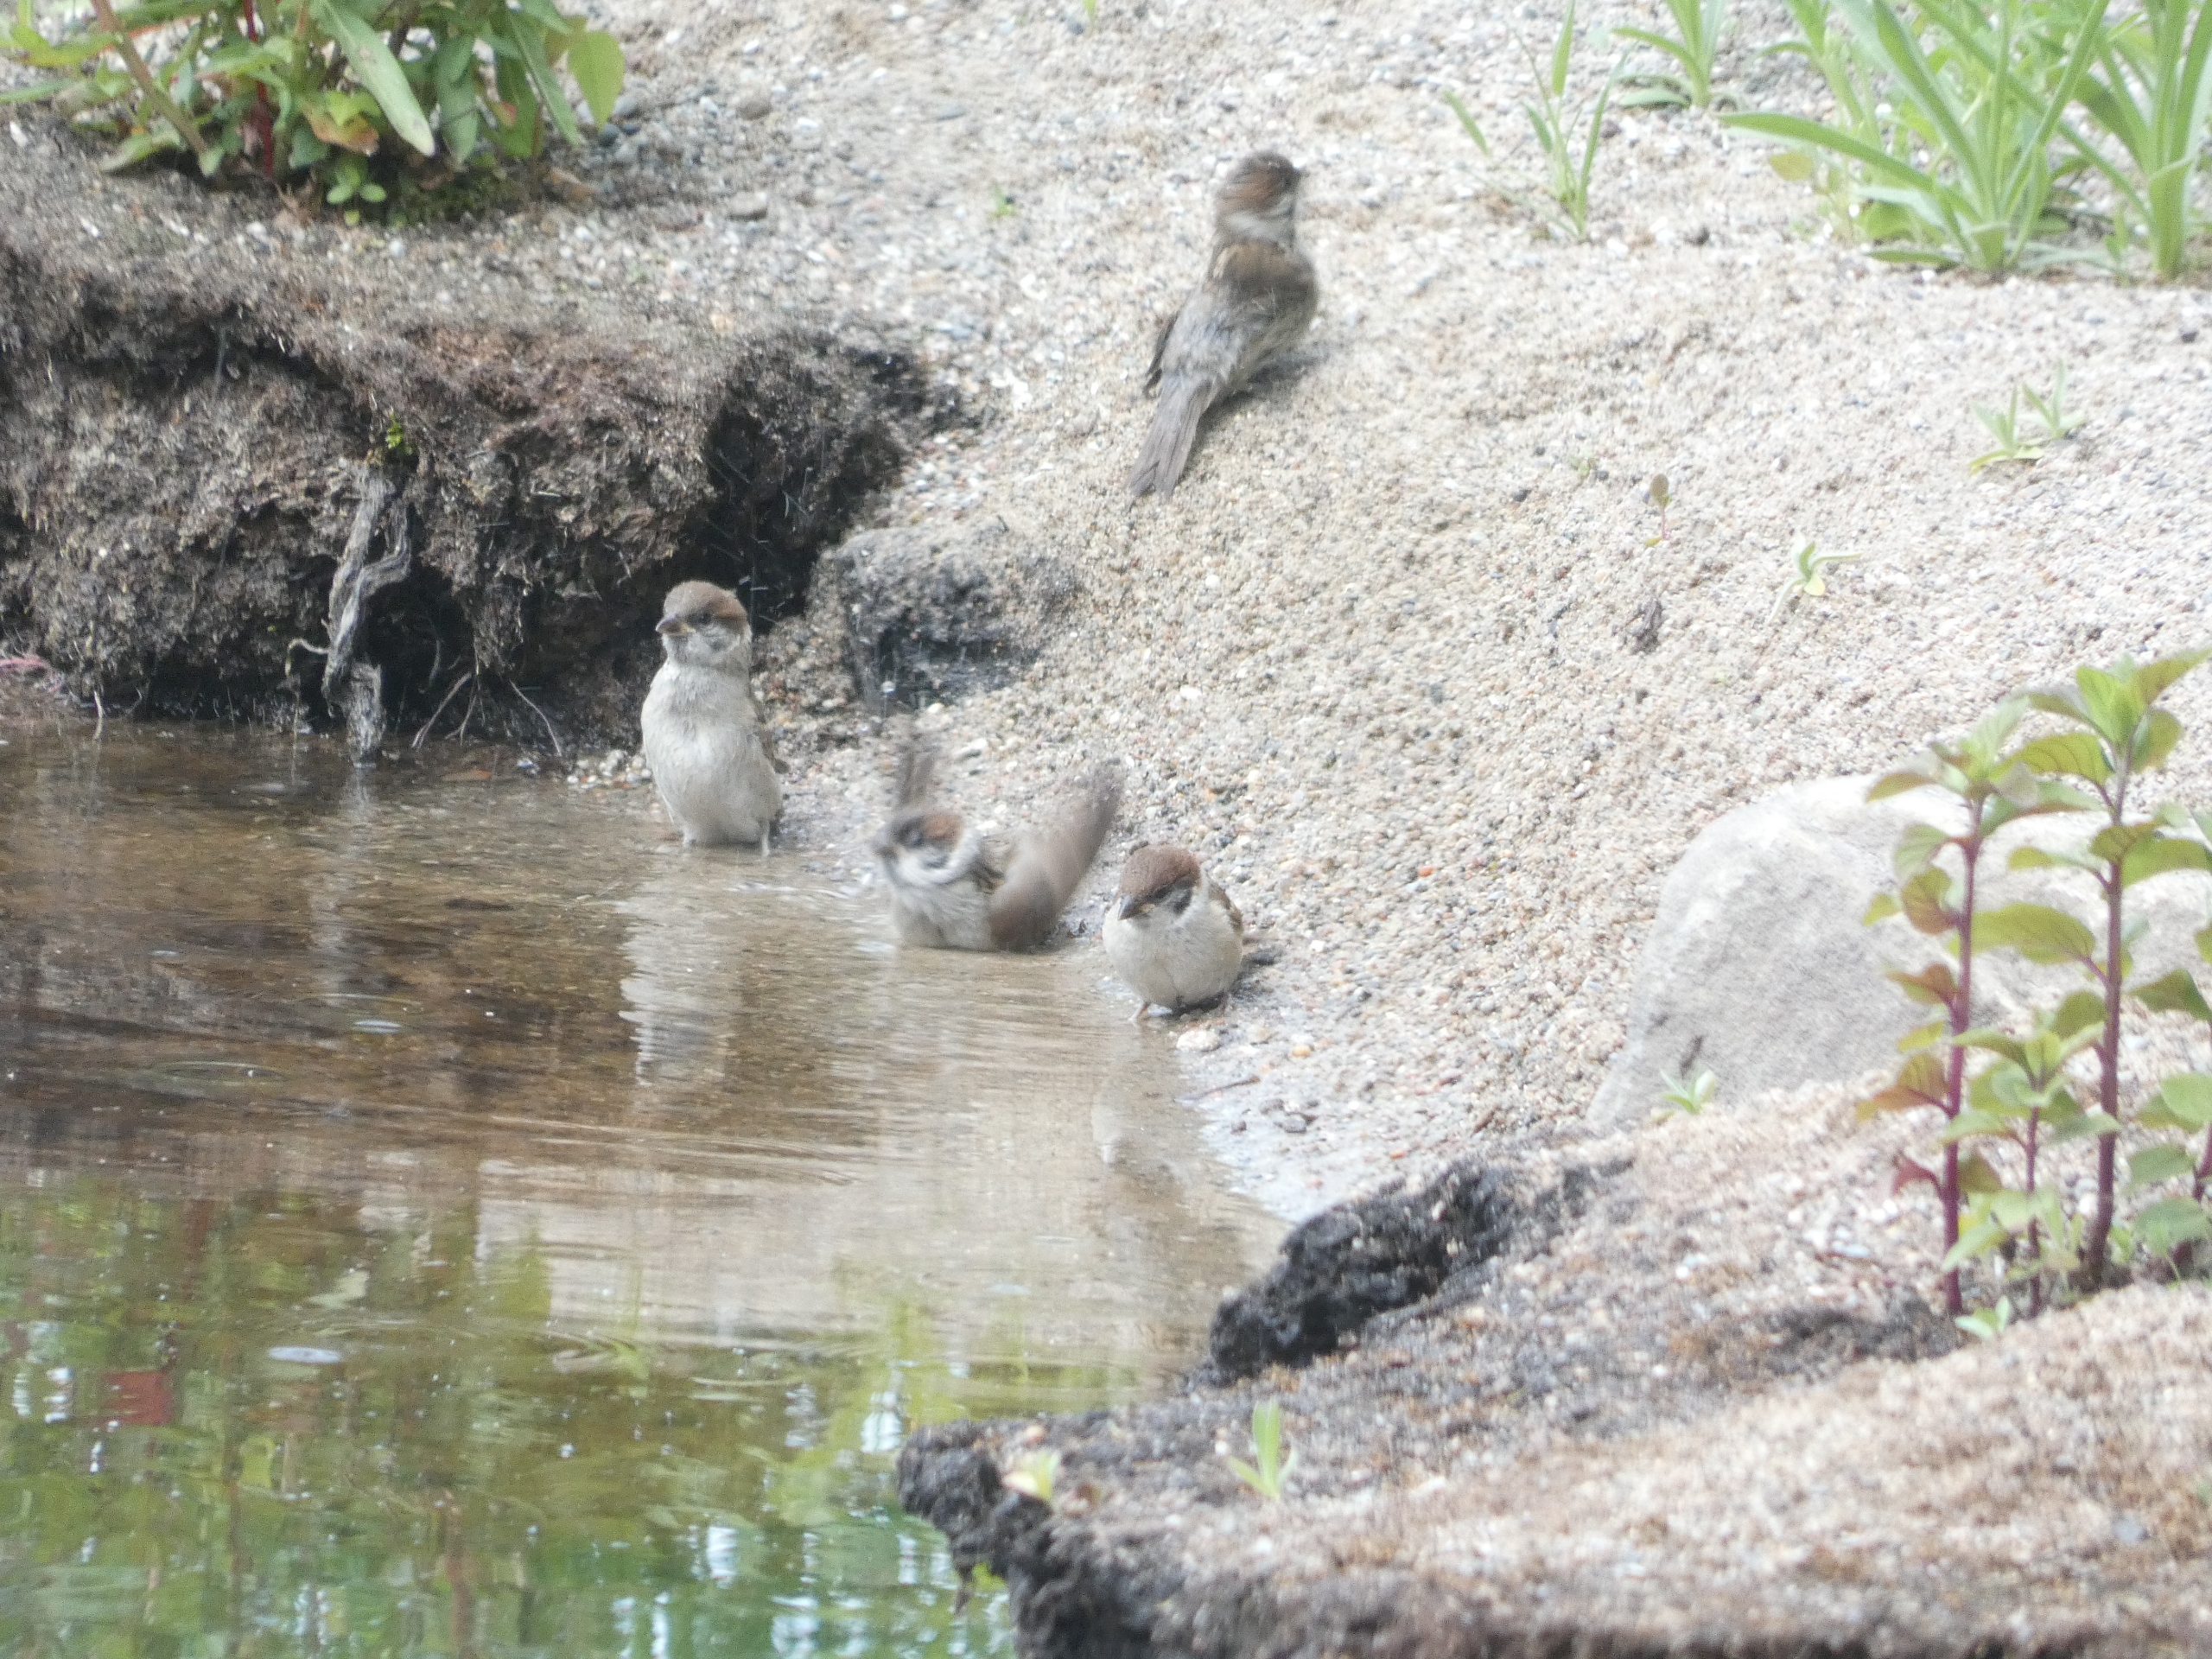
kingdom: Animalia
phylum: Chordata
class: Aves
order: Passeriformes
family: Passeridae
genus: Passer
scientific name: Passer montanus
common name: Skovspurv
